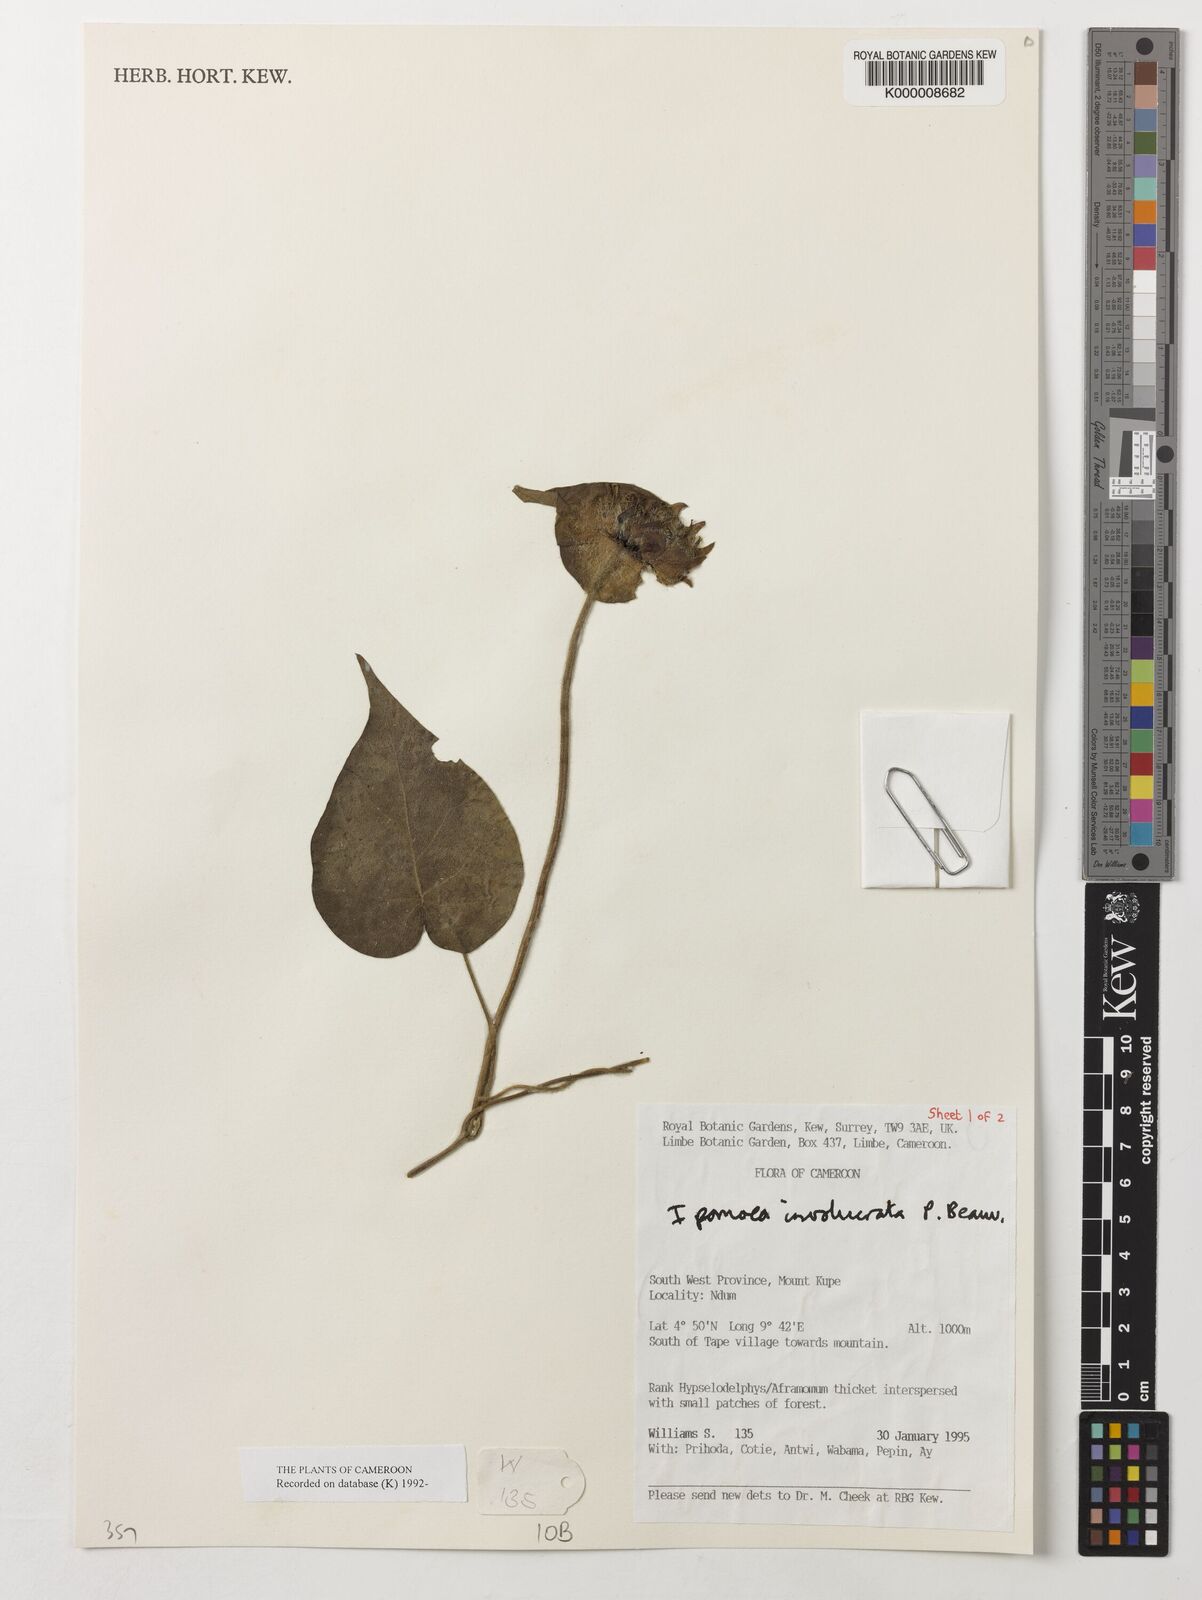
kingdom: Plantae
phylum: Tracheophyta
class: Magnoliopsida
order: Solanales
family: Convolvulaceae
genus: Ipomoea
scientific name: Ipomoea involucrata
